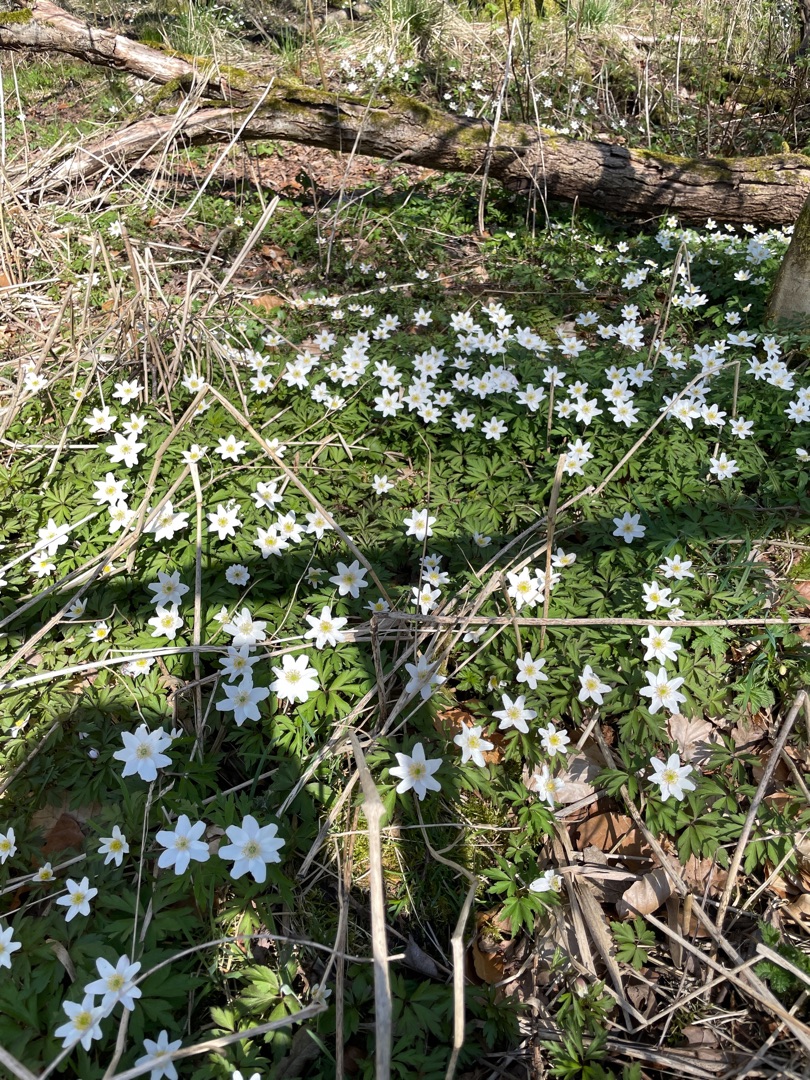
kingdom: Plantae
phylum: Tracheophyta
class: Magnoliopsida
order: Ranunculales
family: Ranunculaceae
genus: Anemone
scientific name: Anemone nemorosa
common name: Hvid anemone
